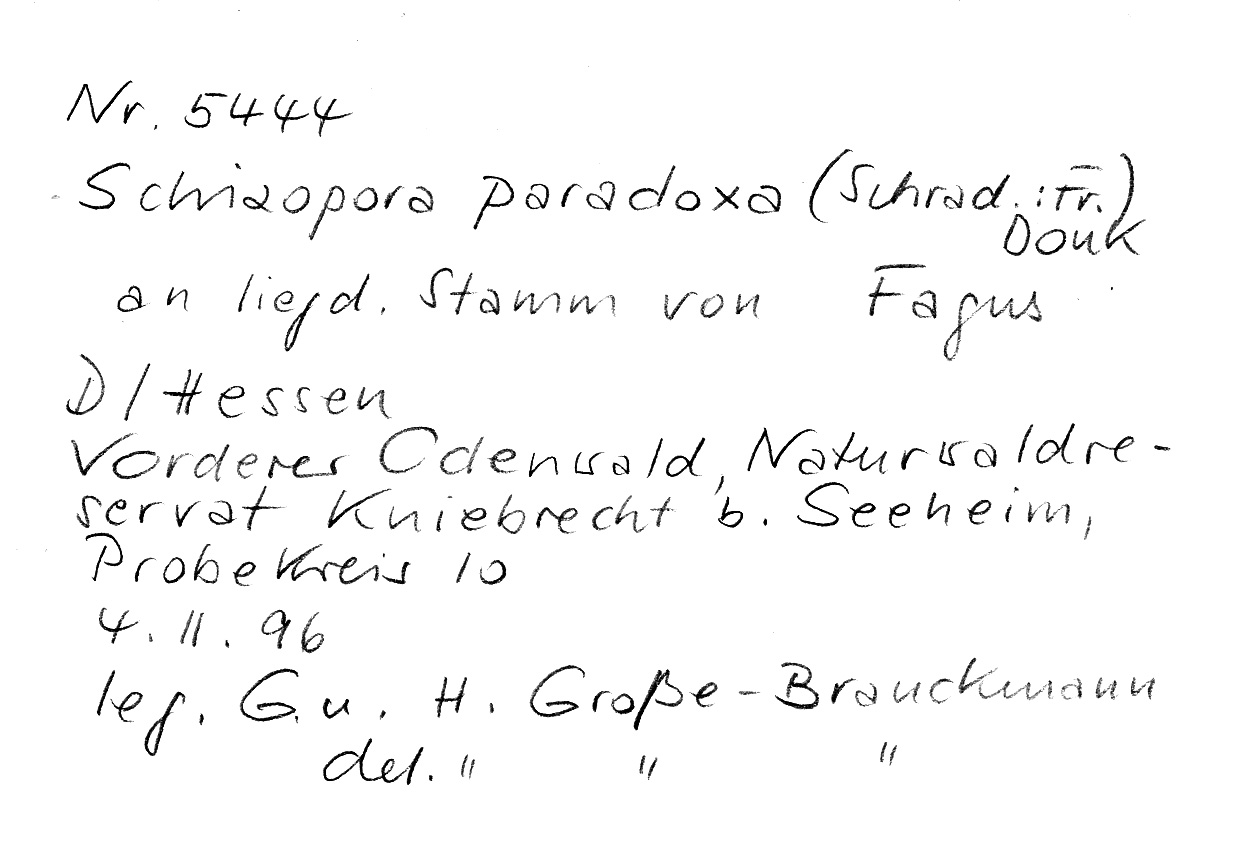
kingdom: Plantae
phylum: Tracheophyta
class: Magnoliopsida
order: Fagales
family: Fagaceae
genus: Fagus
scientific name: Fagus sylvatica
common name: Beech
